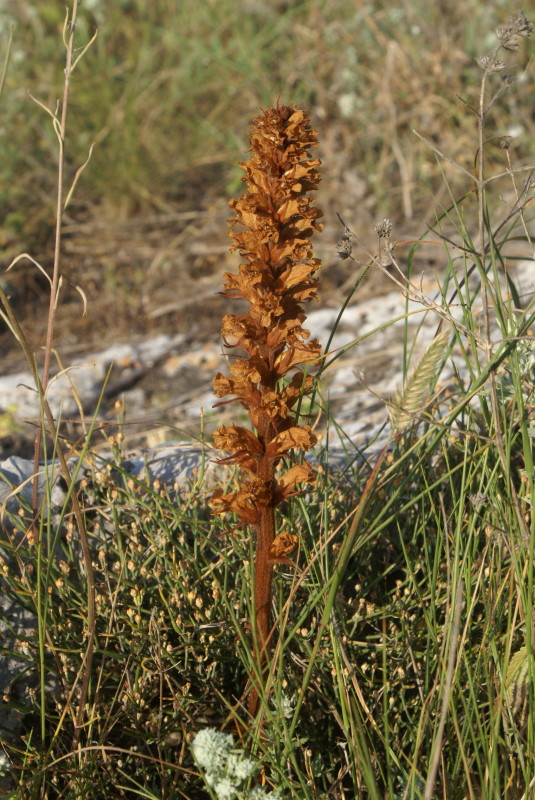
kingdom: Plantae
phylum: Tracheophyta
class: Magnoliopsida
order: Lamiales
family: Scrophulariaceae
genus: Orabanche
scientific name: Orabanche
